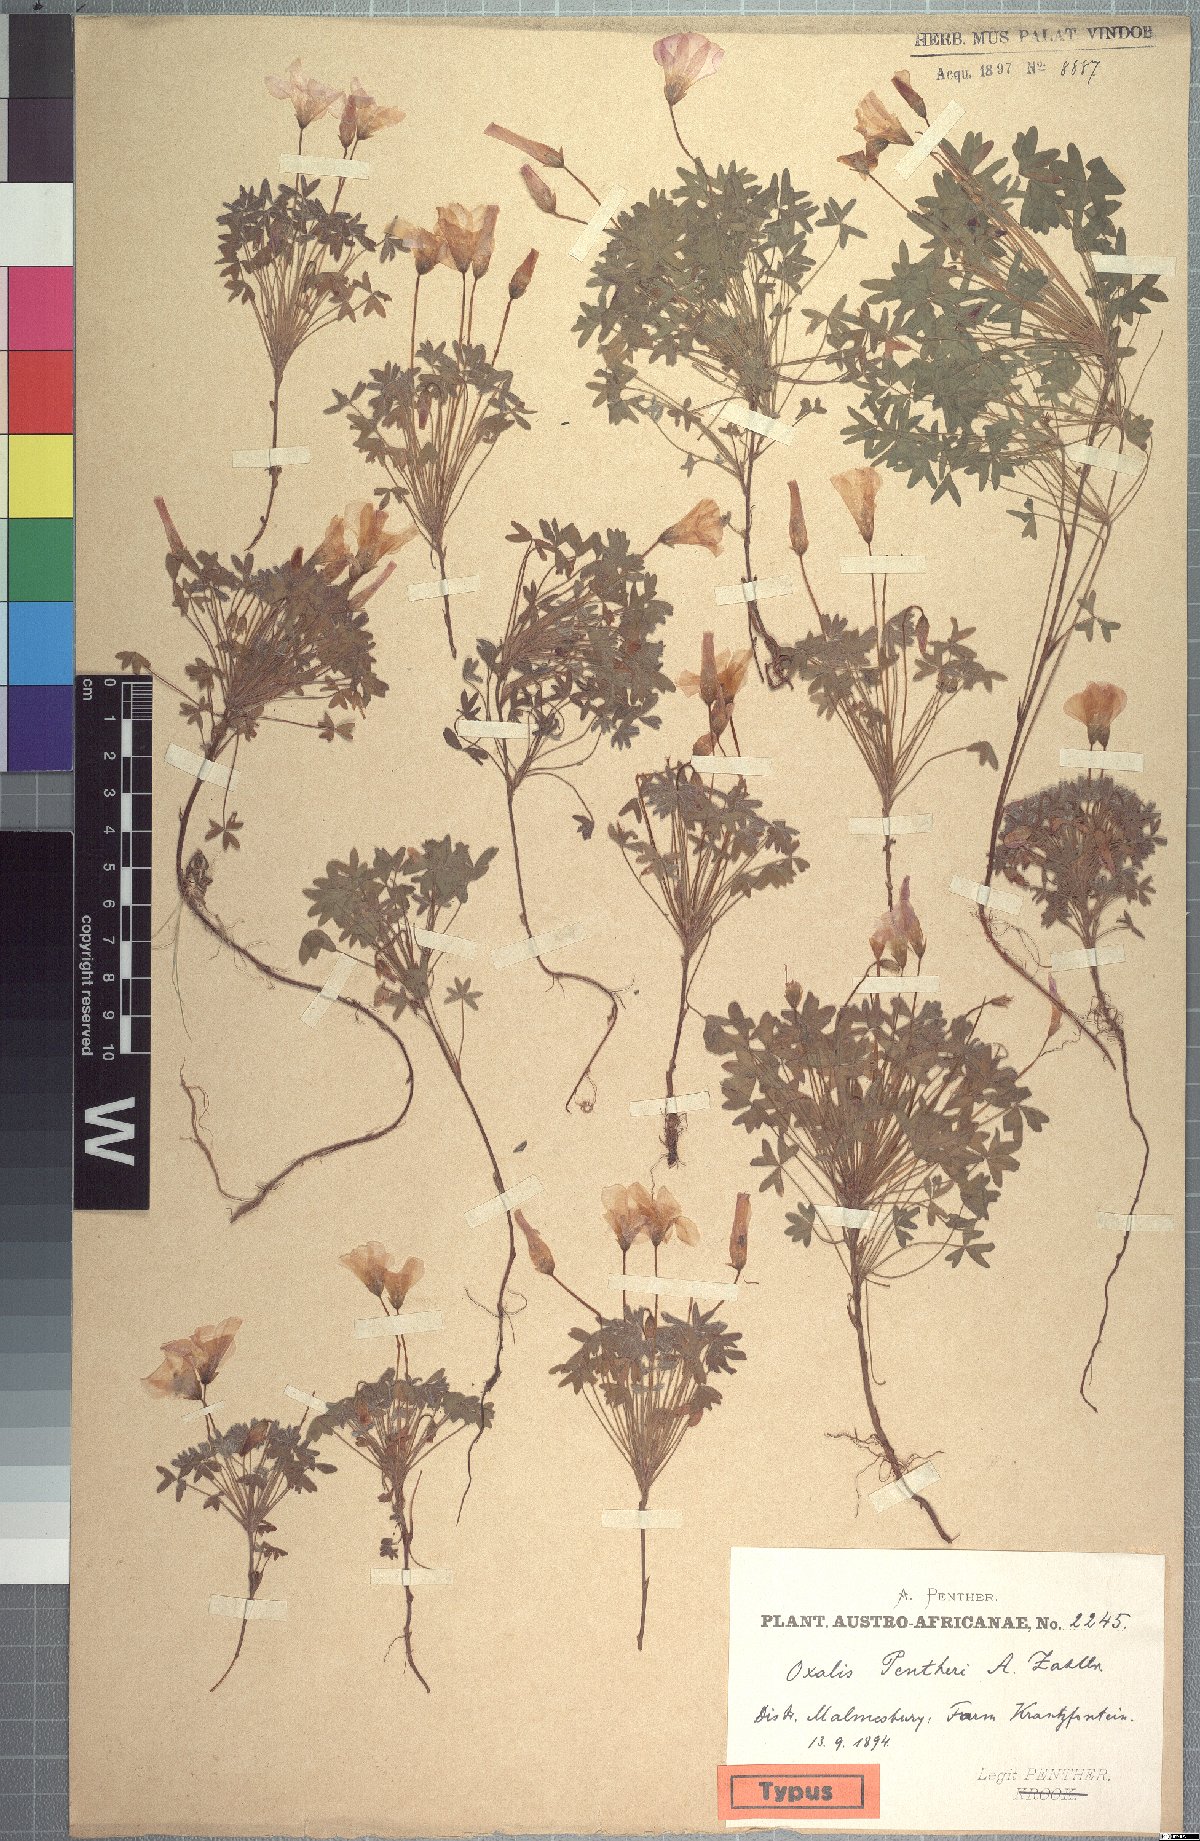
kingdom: Plantae
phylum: Tracheophyta
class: Magnoliopsida
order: Oxalidales
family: Oxalidaceae
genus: Oxalis
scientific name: Oxalis heterophylla
